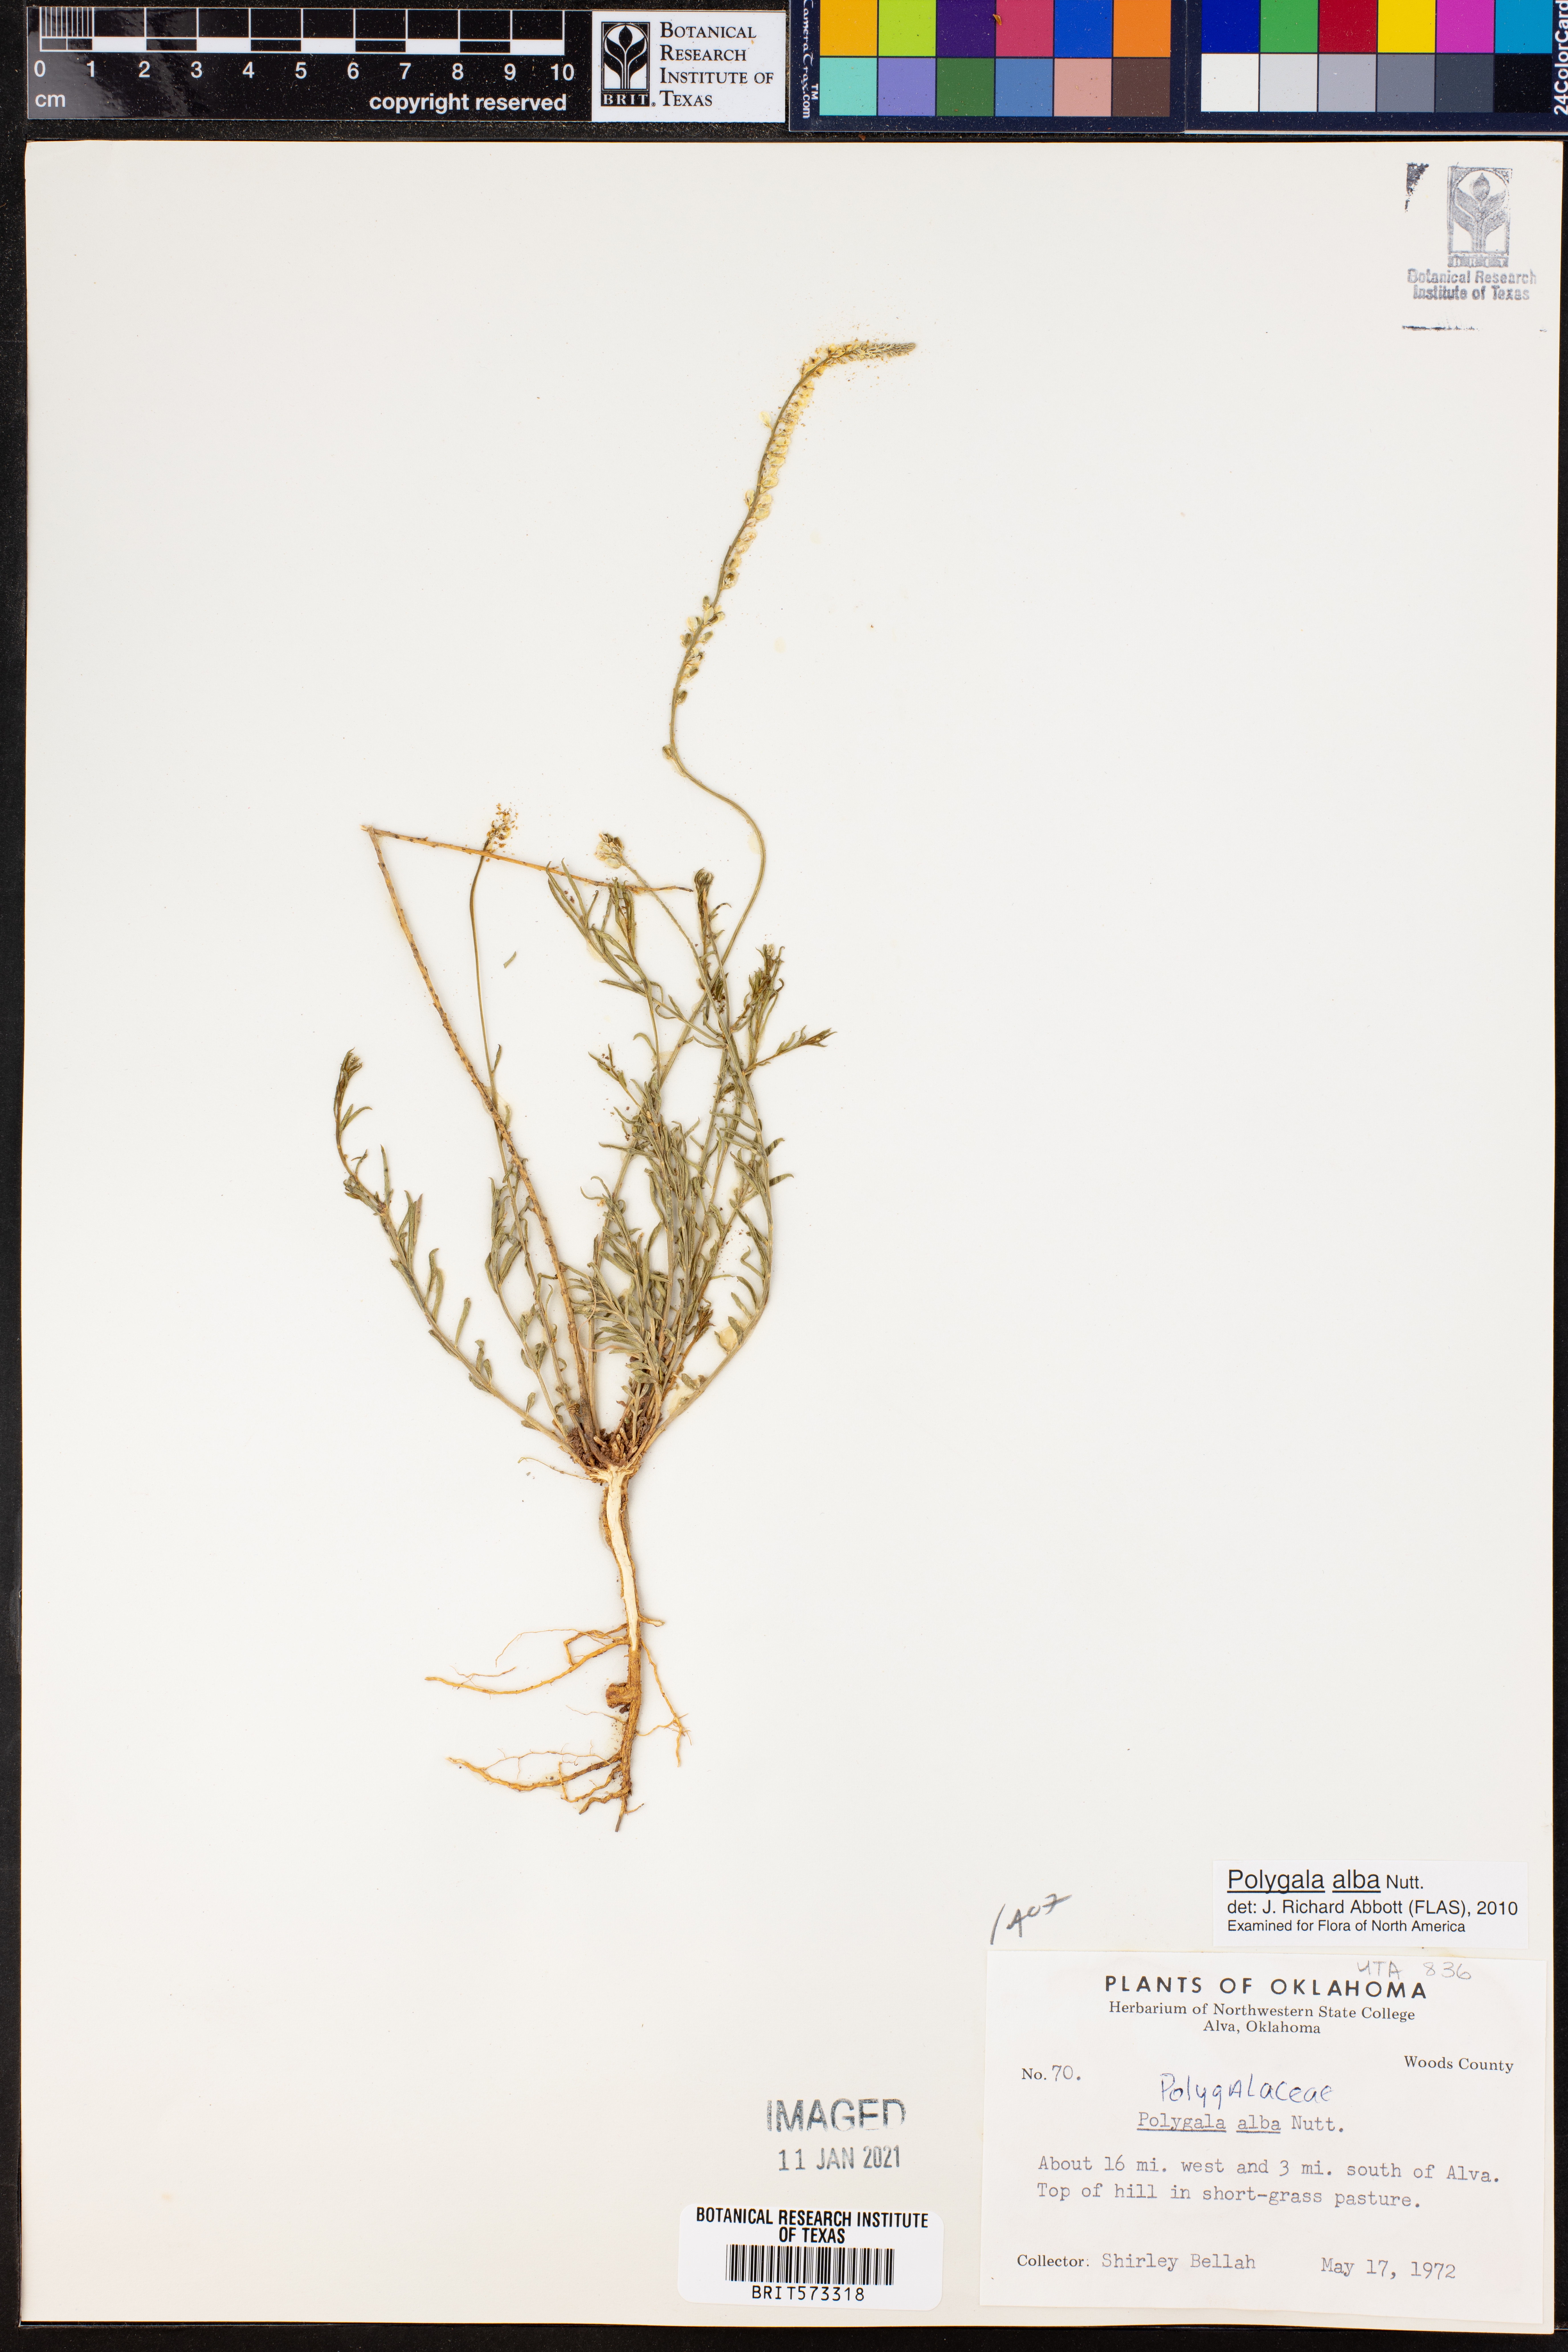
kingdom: Plantae
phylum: Tracheophyta
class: Magnoliopsida
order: Fabales
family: Polygalaceae
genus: Polygala
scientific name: Polygala alba
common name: White milkwort
